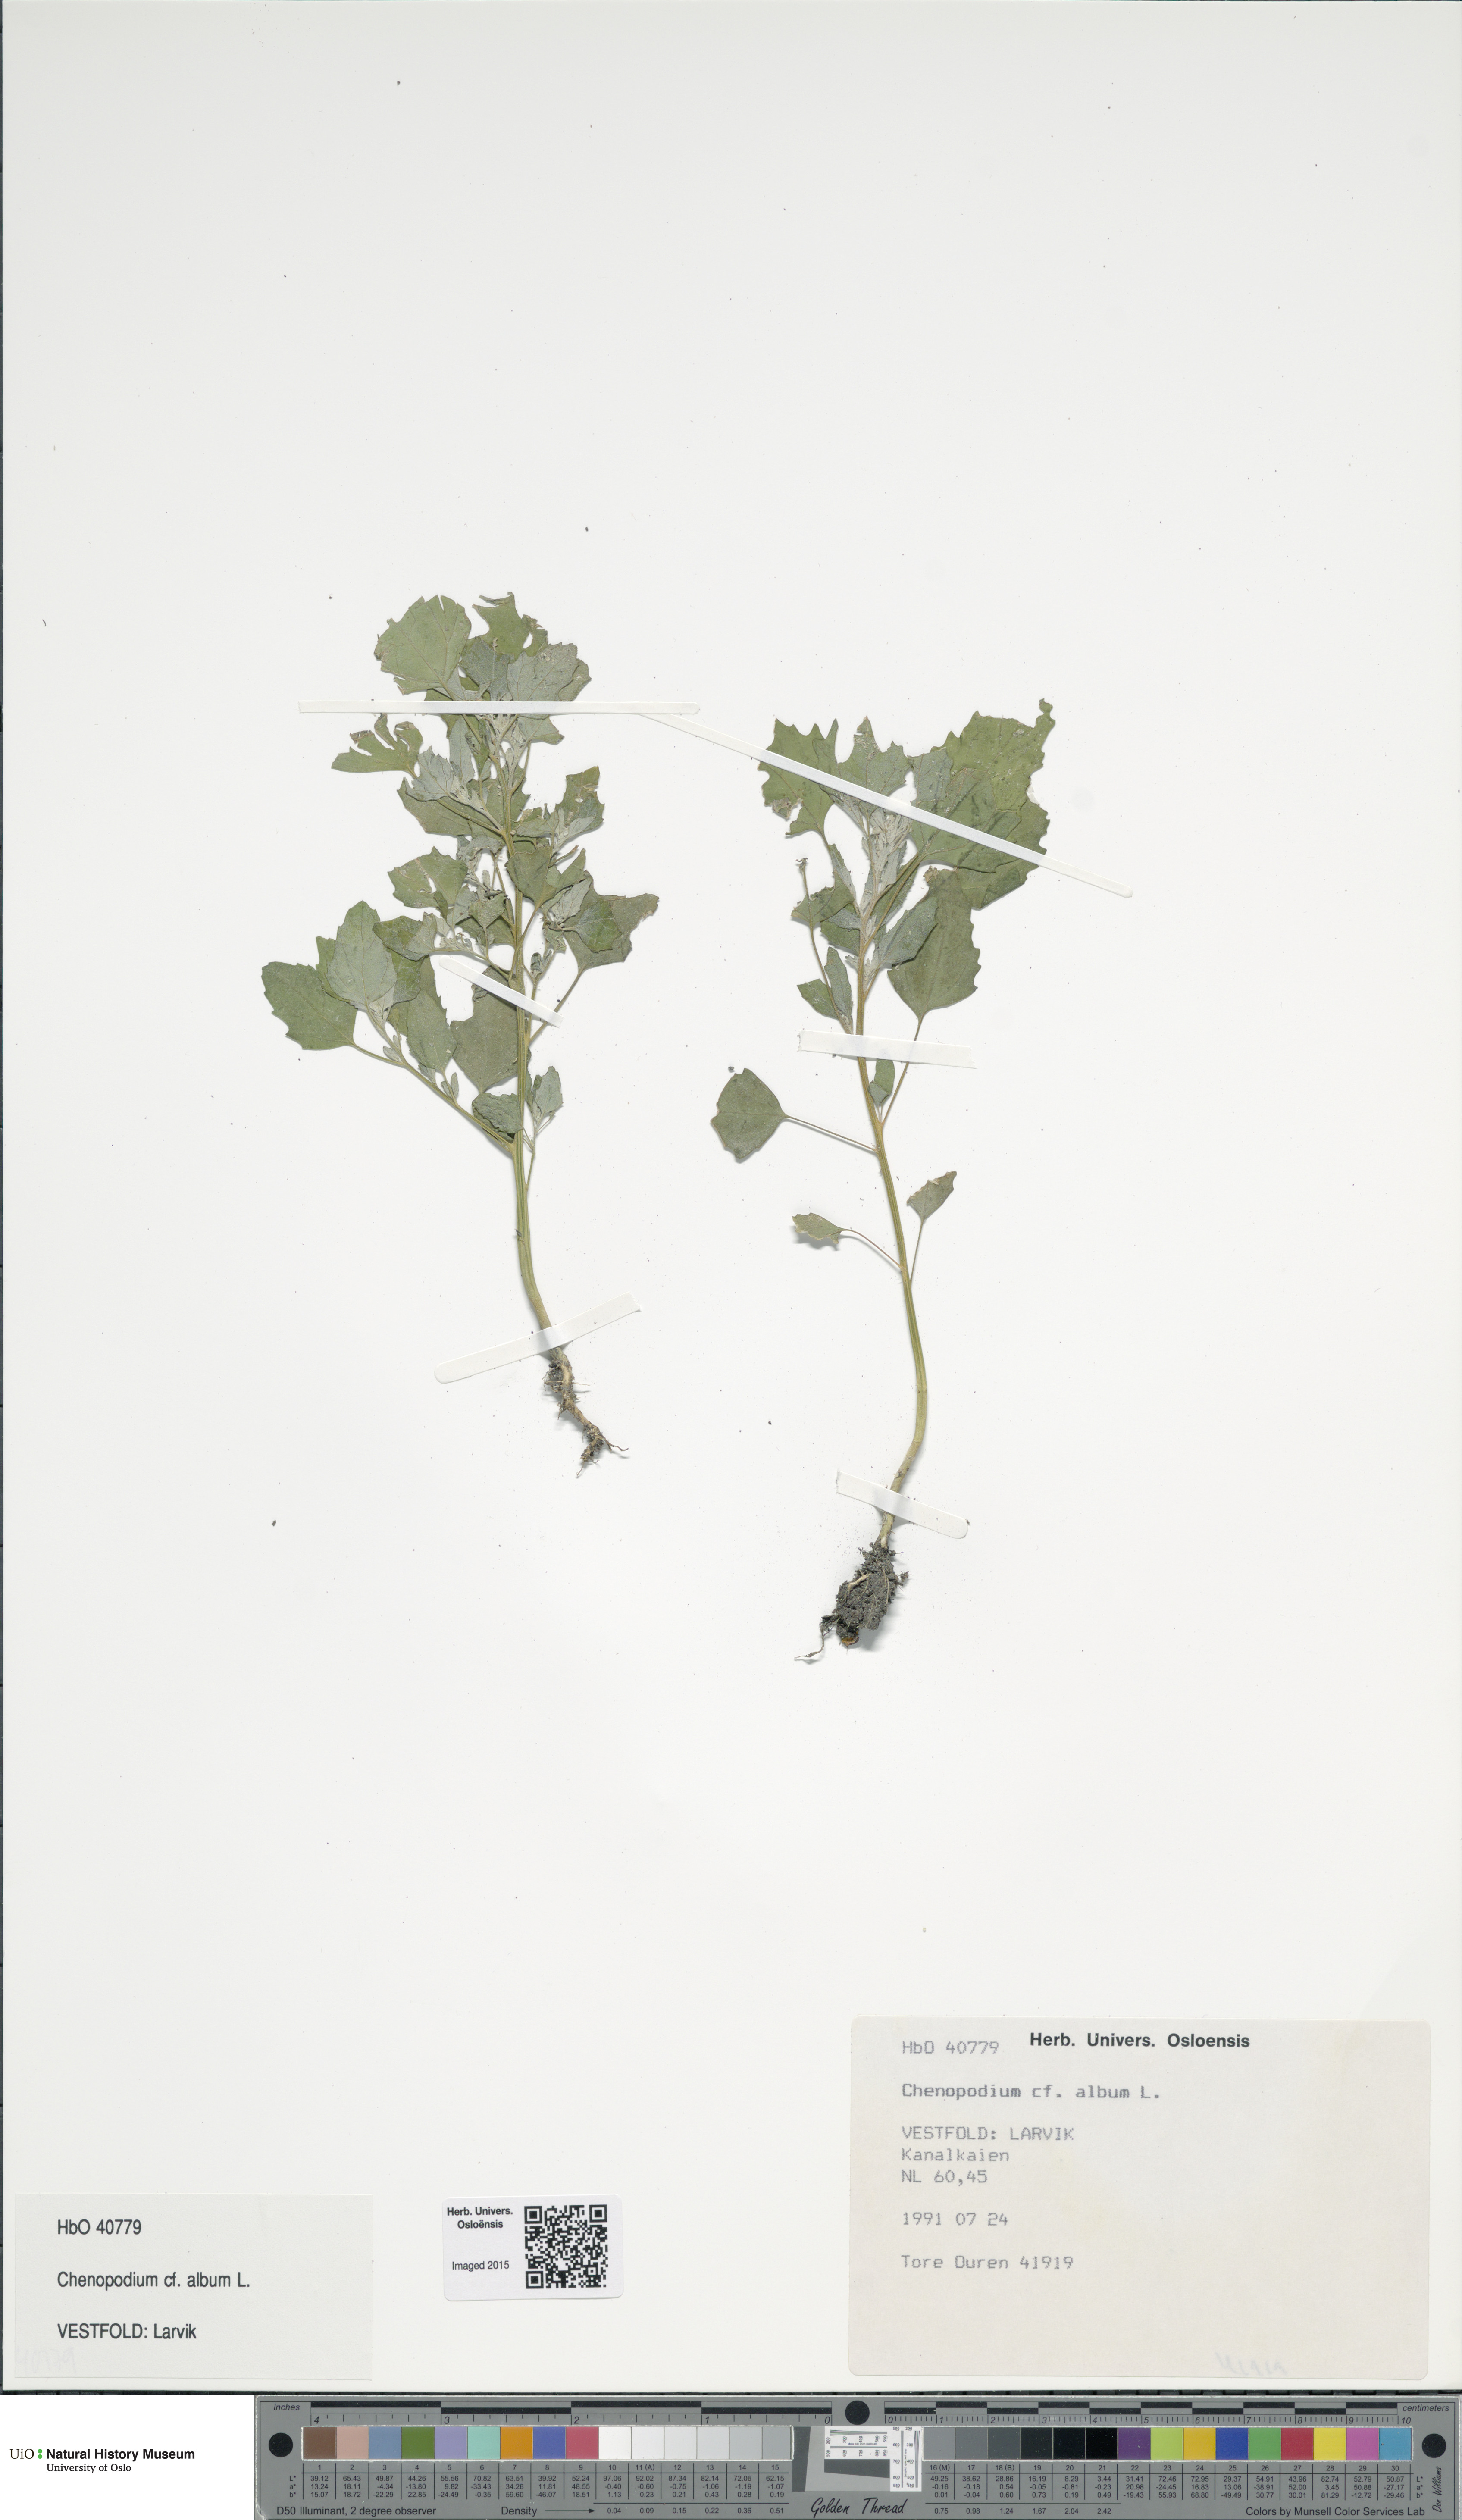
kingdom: Plantae
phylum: Tracheophyta
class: Magnoliopsida
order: Caryophyllales
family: Amaranthaceae
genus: Chenopodium
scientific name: Chenopodium album
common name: Fat-hen
